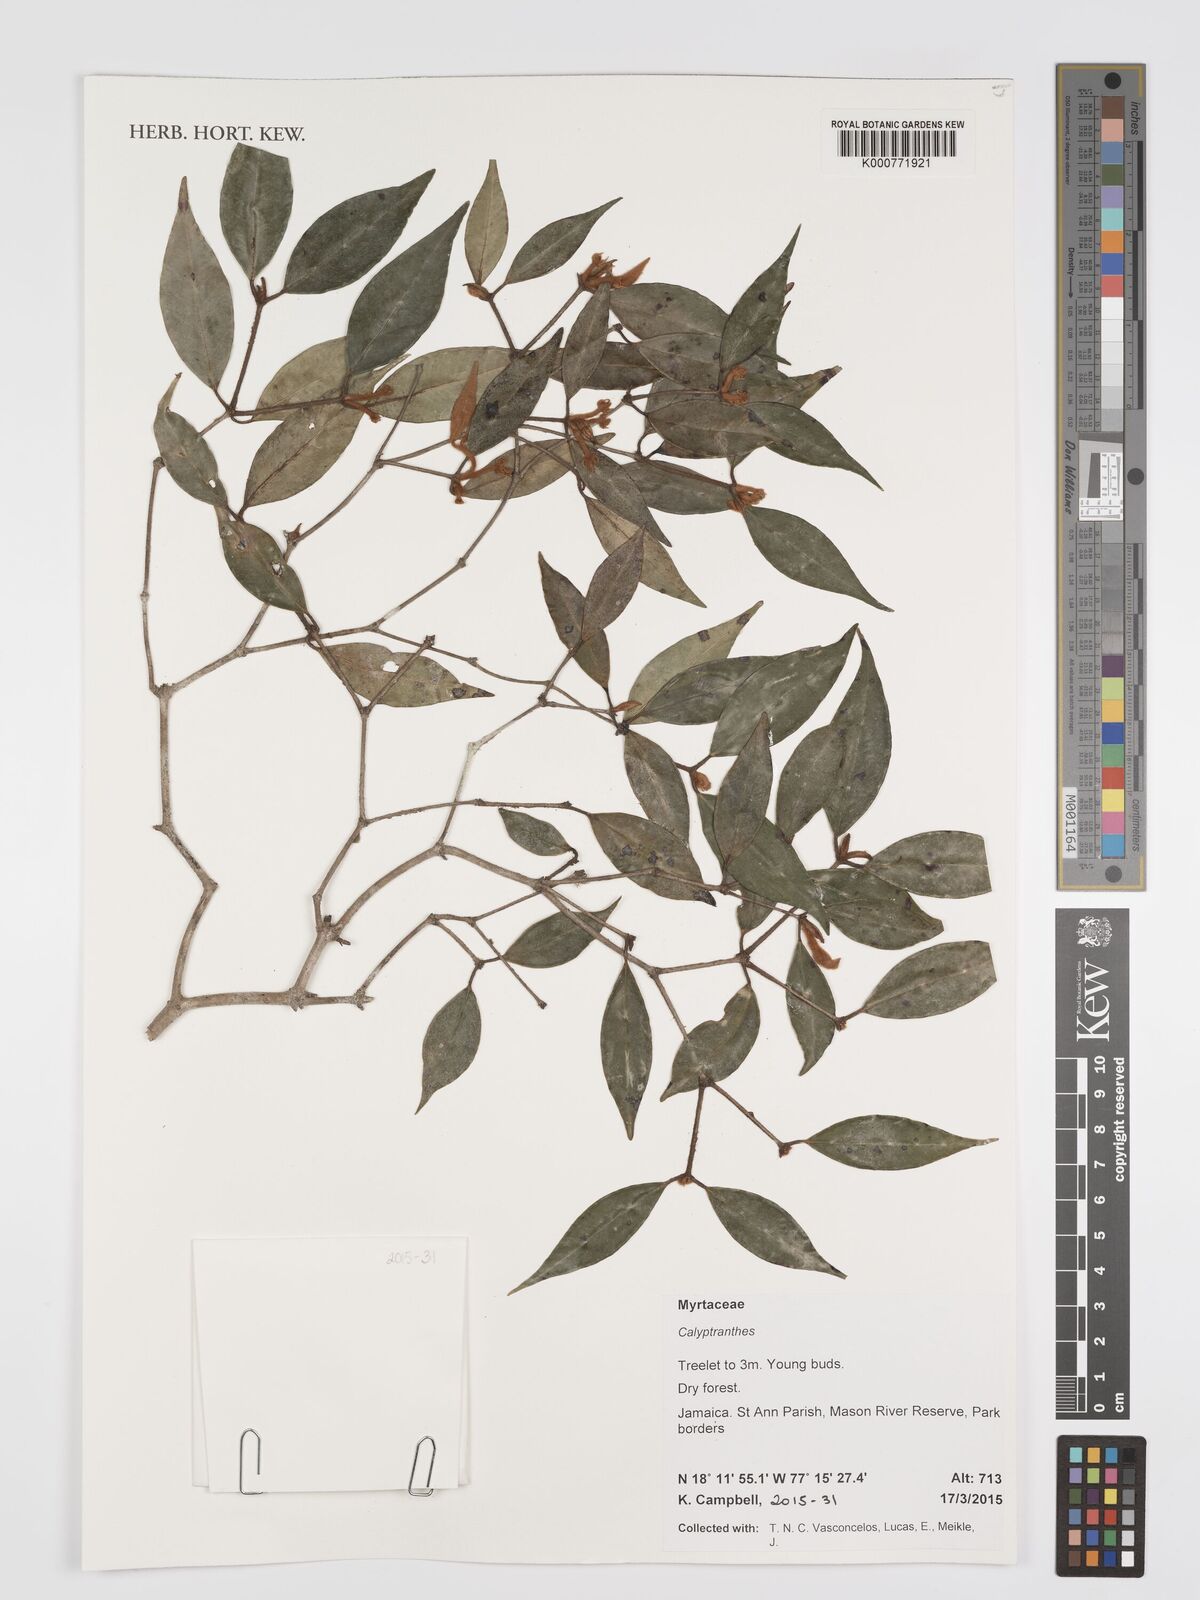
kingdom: Plantae
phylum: Tracheophyta
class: Magnoliopsida
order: Myrtales
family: Myrtaceae
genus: Calyptranthes
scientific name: Calyptranthes
